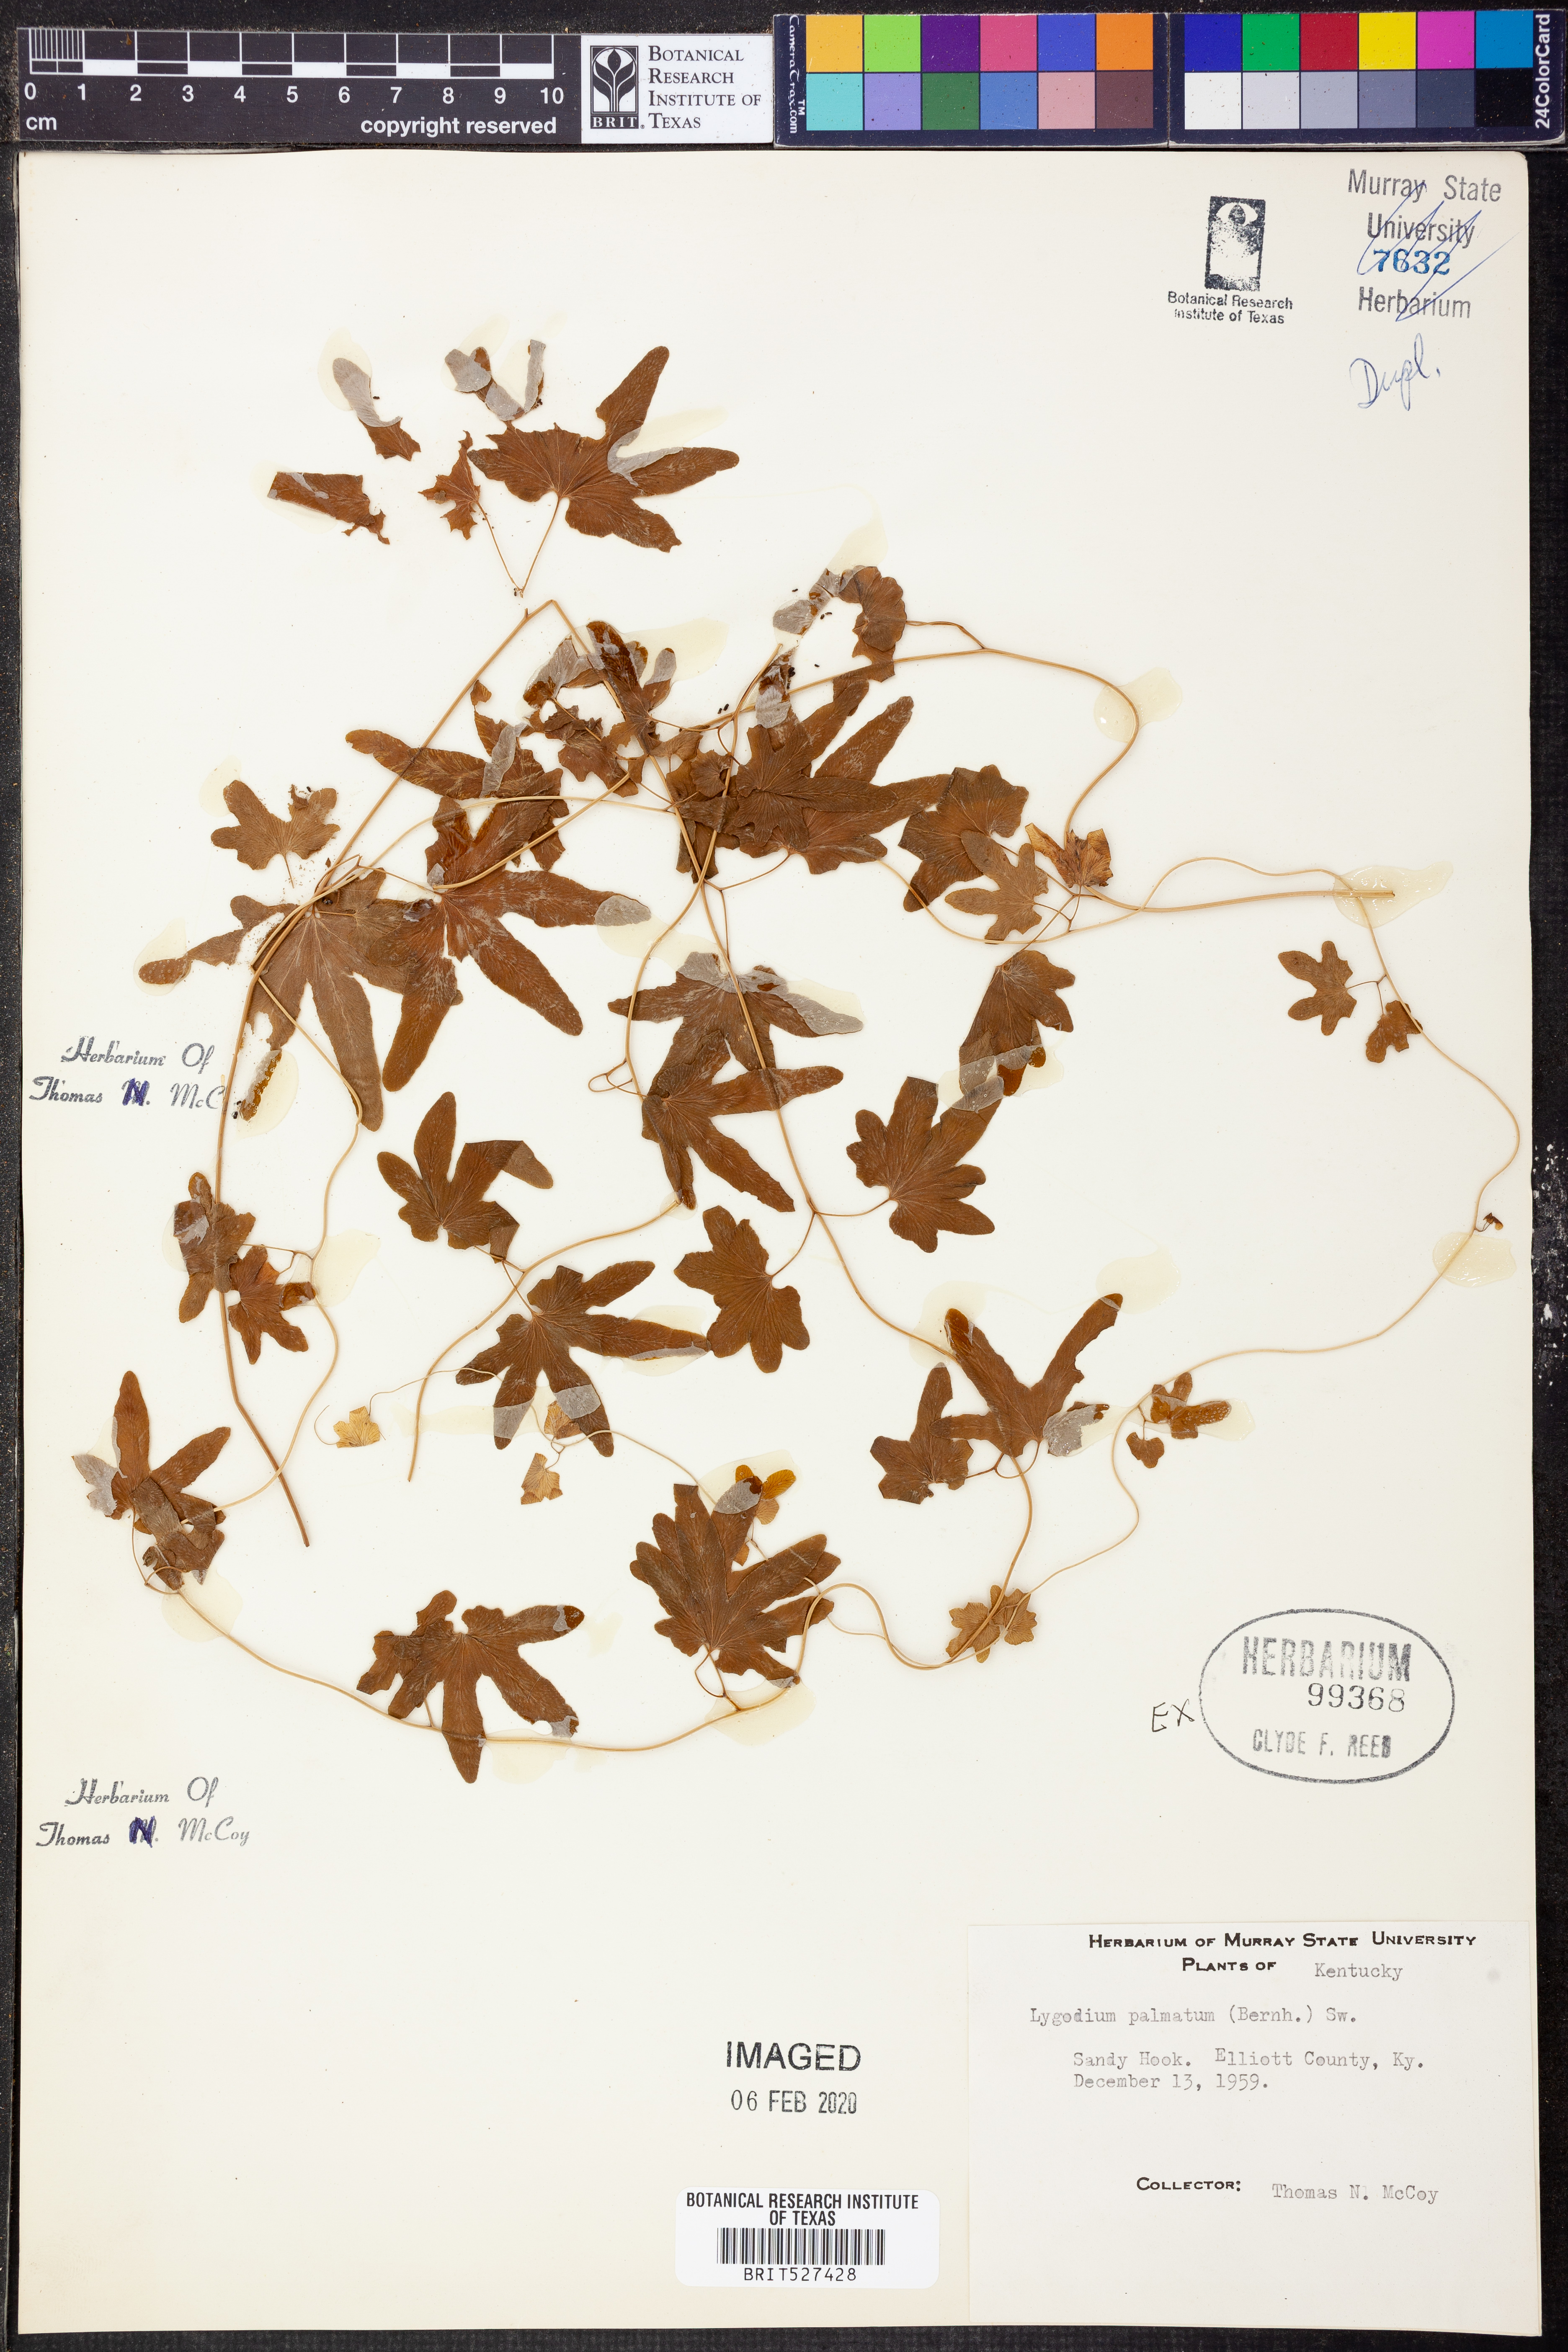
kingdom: Plantae
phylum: Tracheophyta
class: Polypodiopsida
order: Schizaeales
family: Lygodiaceae
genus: Lygodium
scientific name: Lygodium palmatum
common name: American climbing fern
